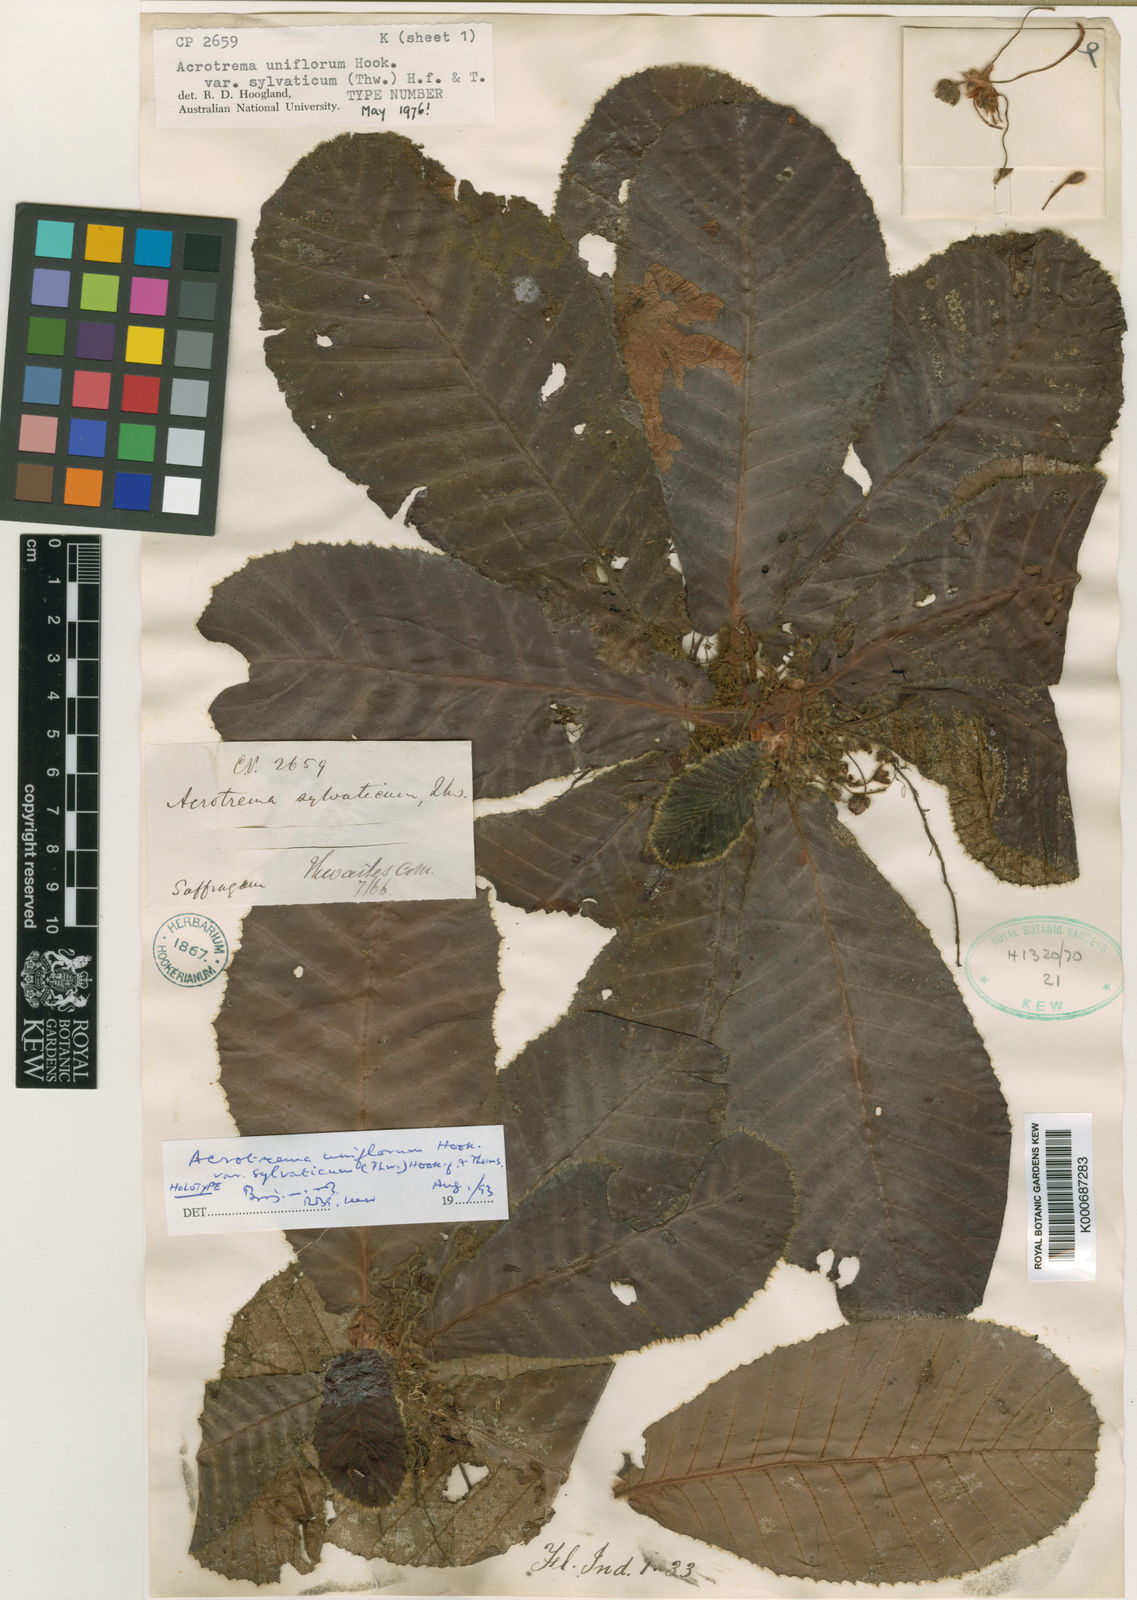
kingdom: Plantae
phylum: Tracheophyta
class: Magnoliopsida
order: Dilleniales
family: Dilleniaceae
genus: Acrotrema
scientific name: Acrotrema uniflorum
